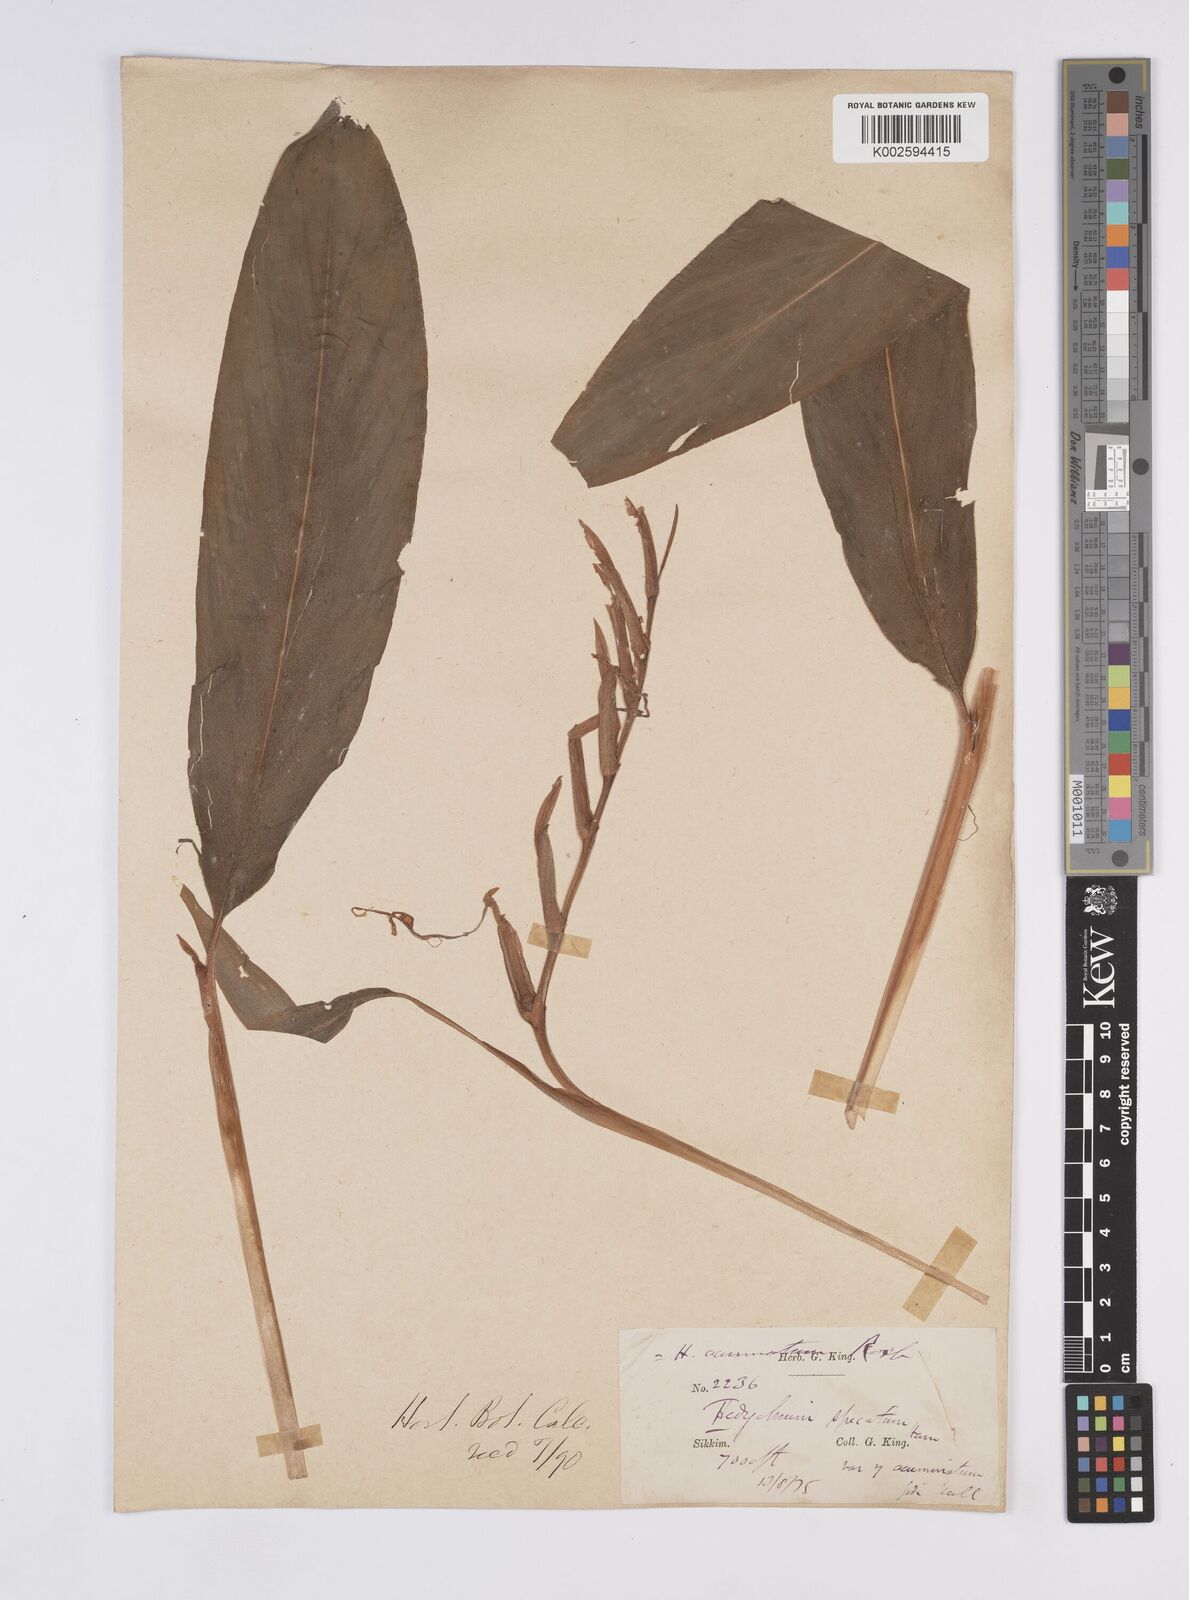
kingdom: Plantae
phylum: Tracheophyta
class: Liliopsida
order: Zingiberales
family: Zingiberaceae
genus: Hedychium
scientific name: Hedychium spicatum
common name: Spiked ginger-lily
